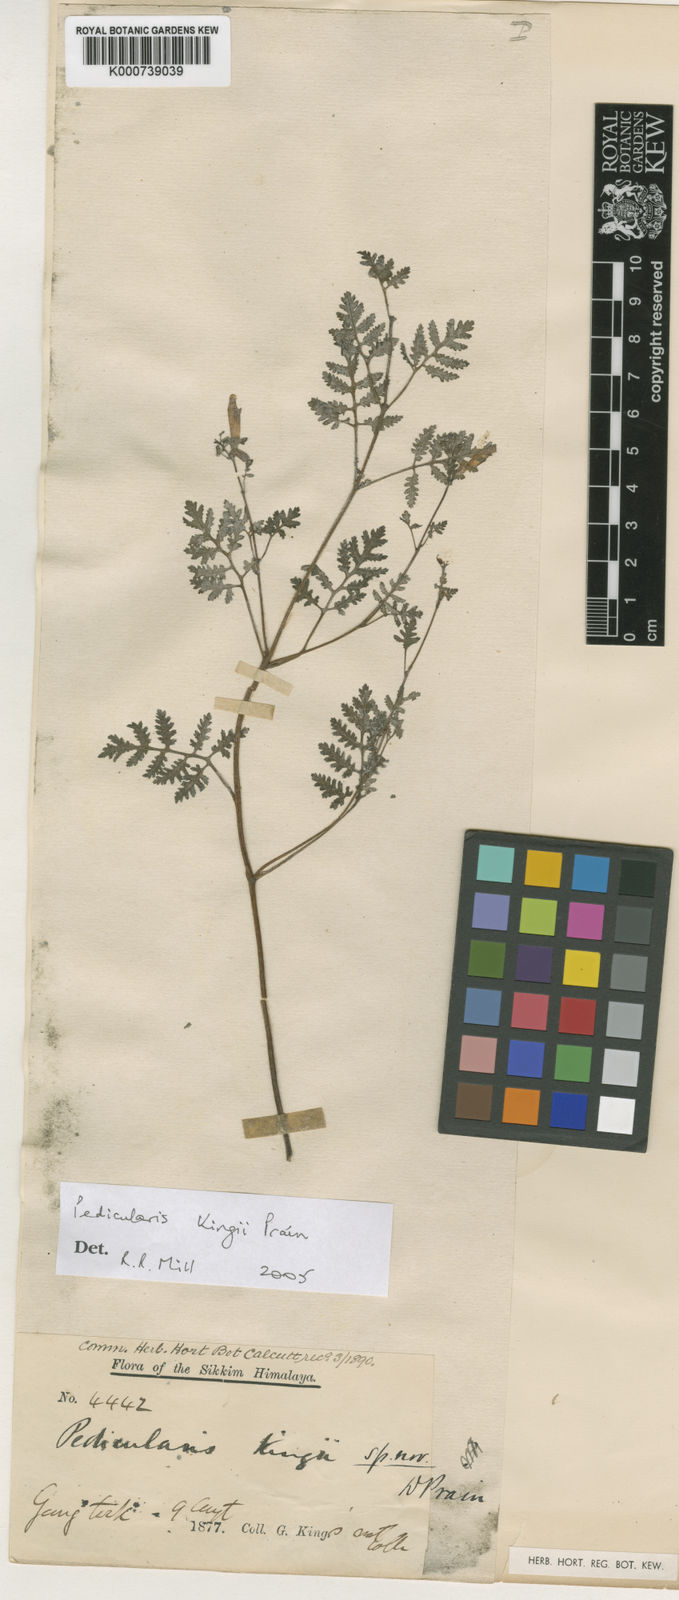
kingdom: Plantae
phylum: Tracheophyta
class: Magnoliopsida
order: Lamiales
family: Orobanchaceae
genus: Pedicularis
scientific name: Pedicularis kingii
